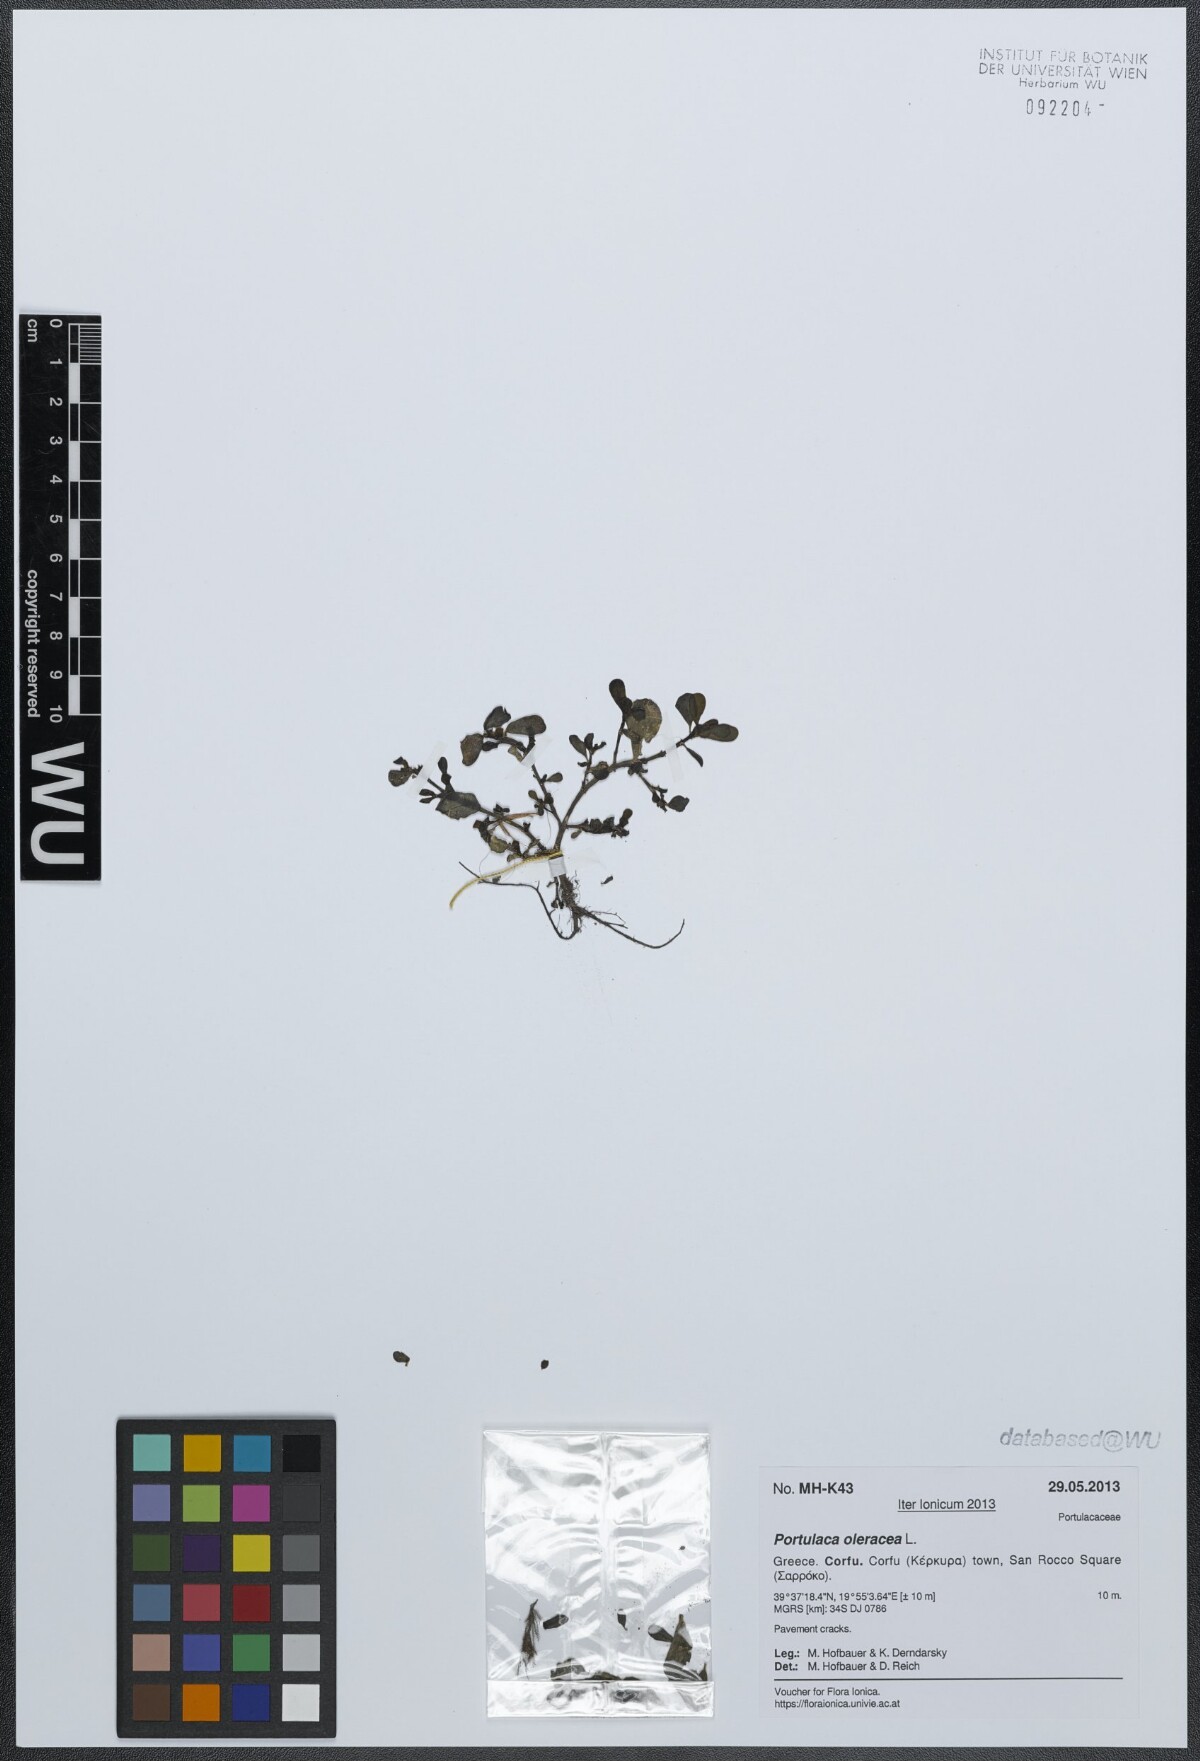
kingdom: Plantae
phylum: Tracheophyta
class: Magnoliopsida
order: Caryophyllales
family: Portulacaceae
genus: Portulaca
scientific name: Portulaca oleracea
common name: Common purslane
